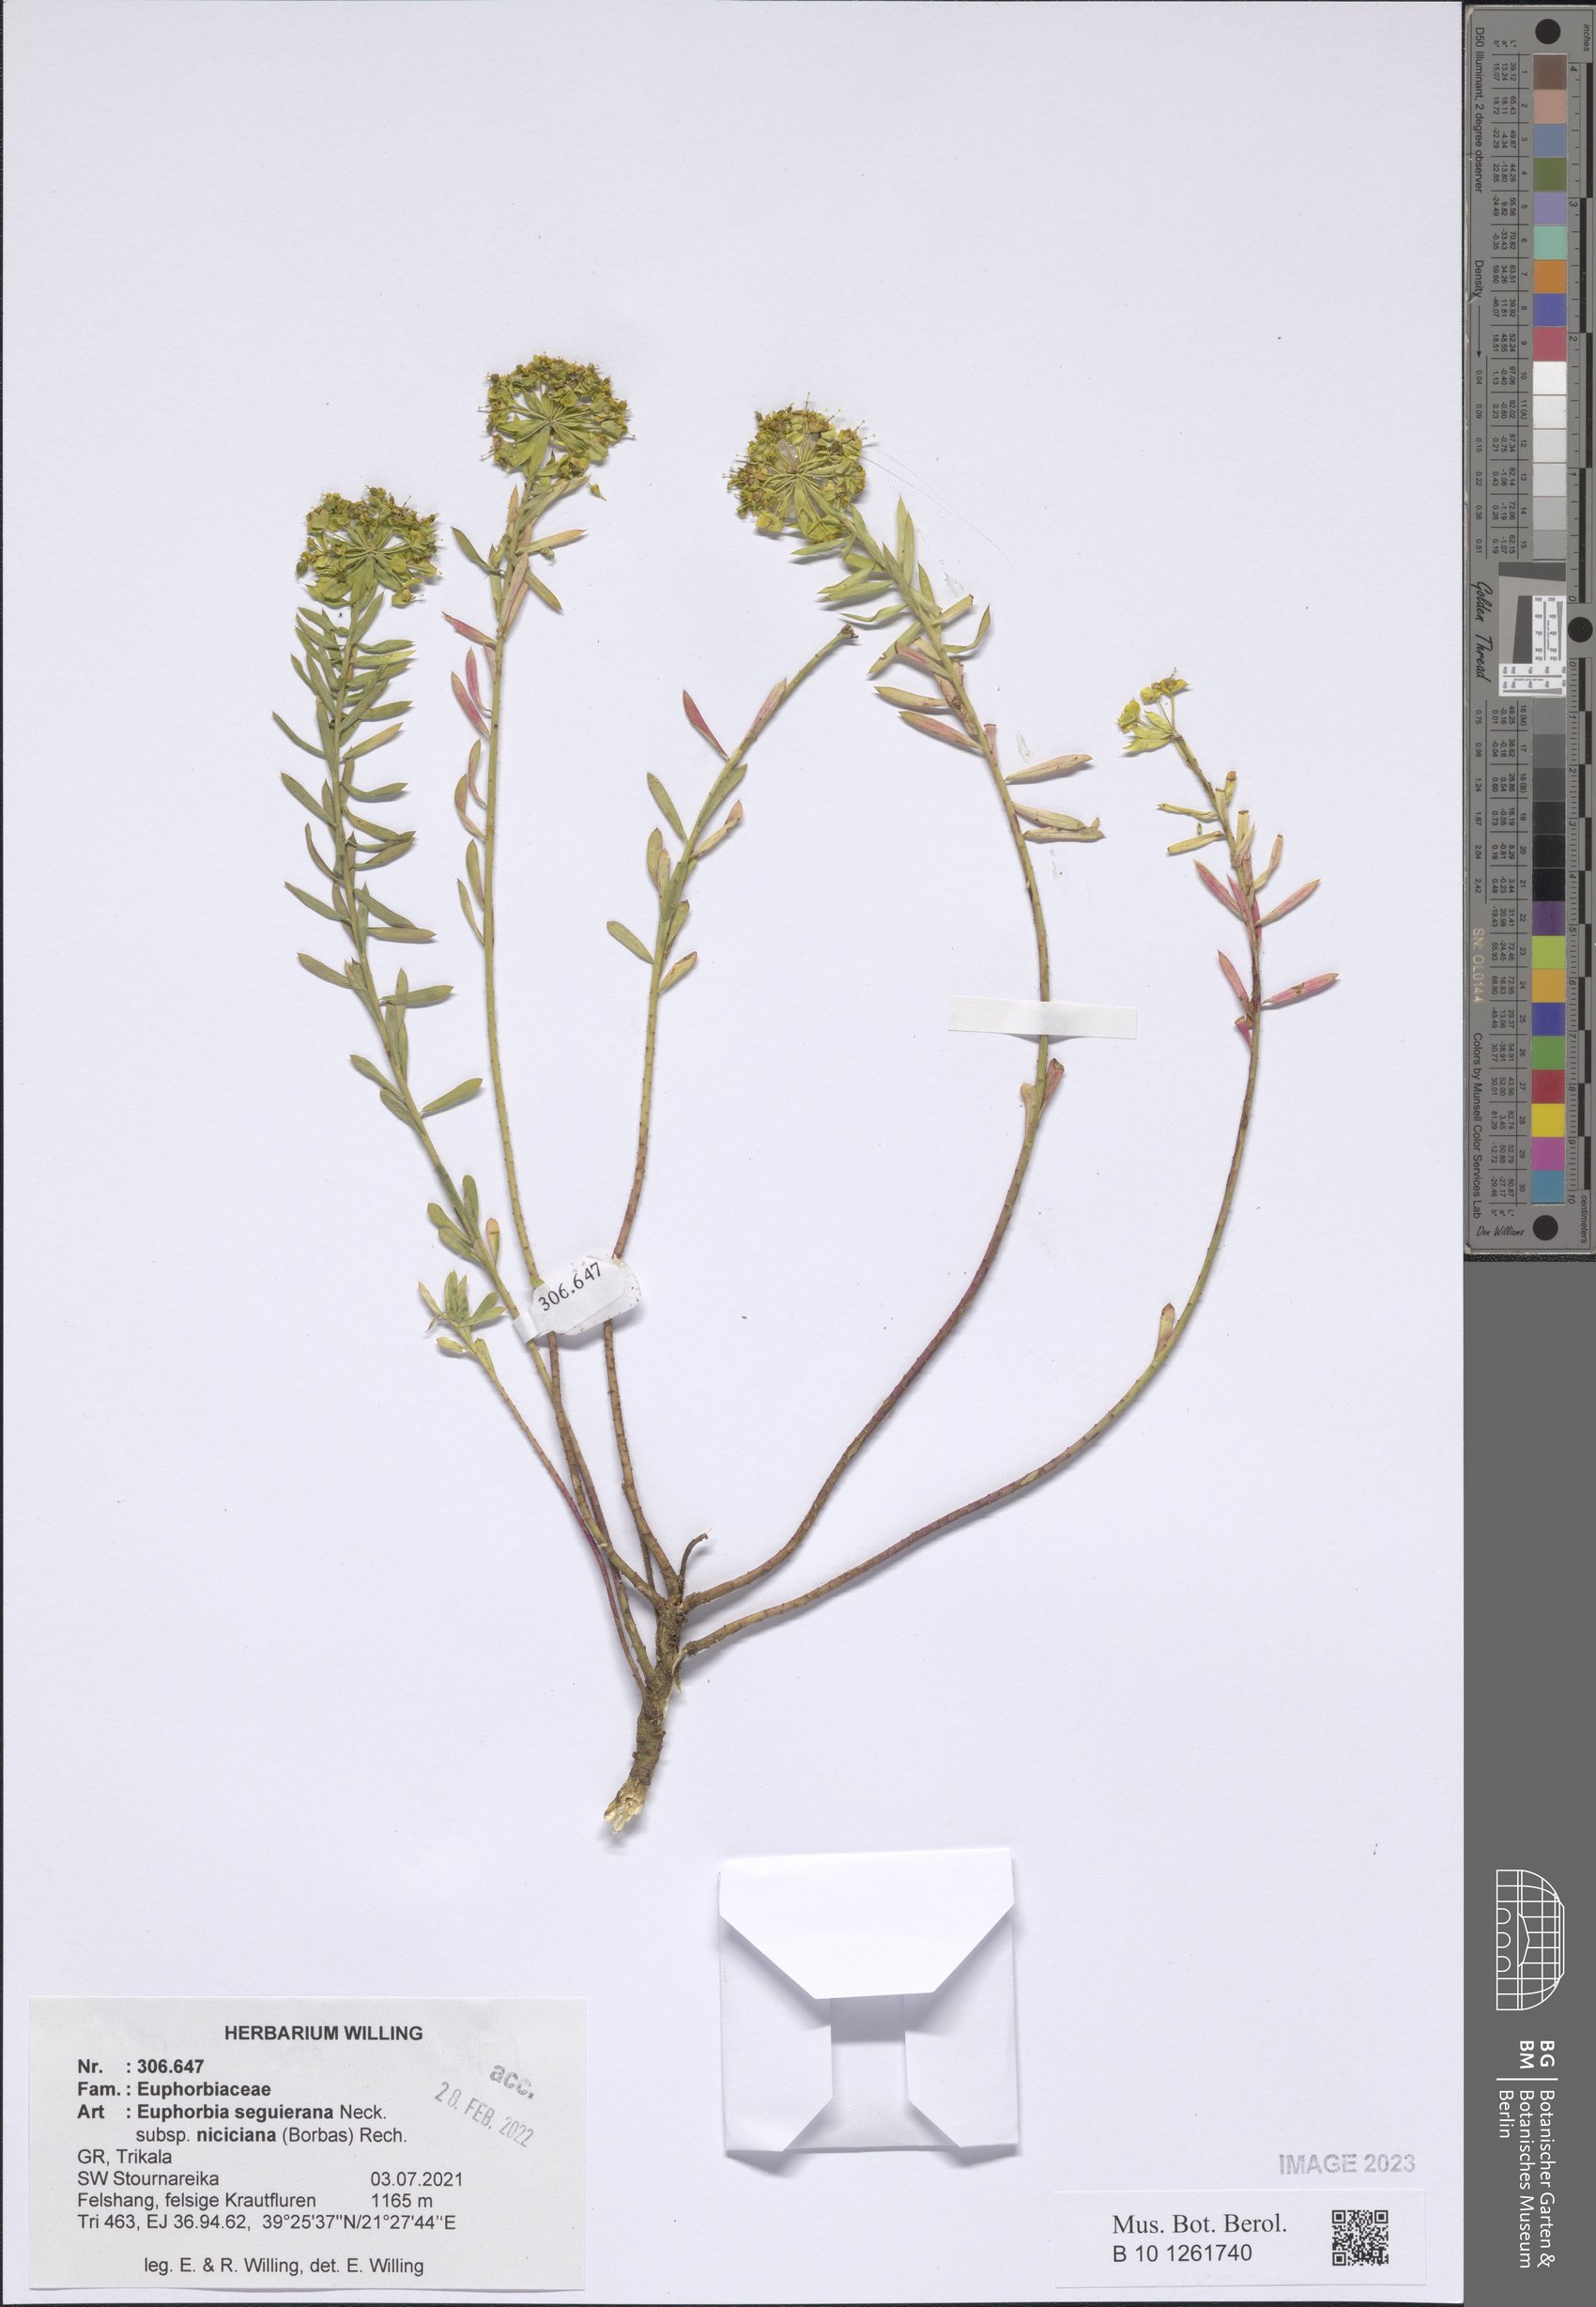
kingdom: Plantae
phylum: Tracheophyta
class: Magnoliopsida
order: Malpighiales
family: Euphorbiaceae
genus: Euphorbia
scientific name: Euphorbia seguieriana
